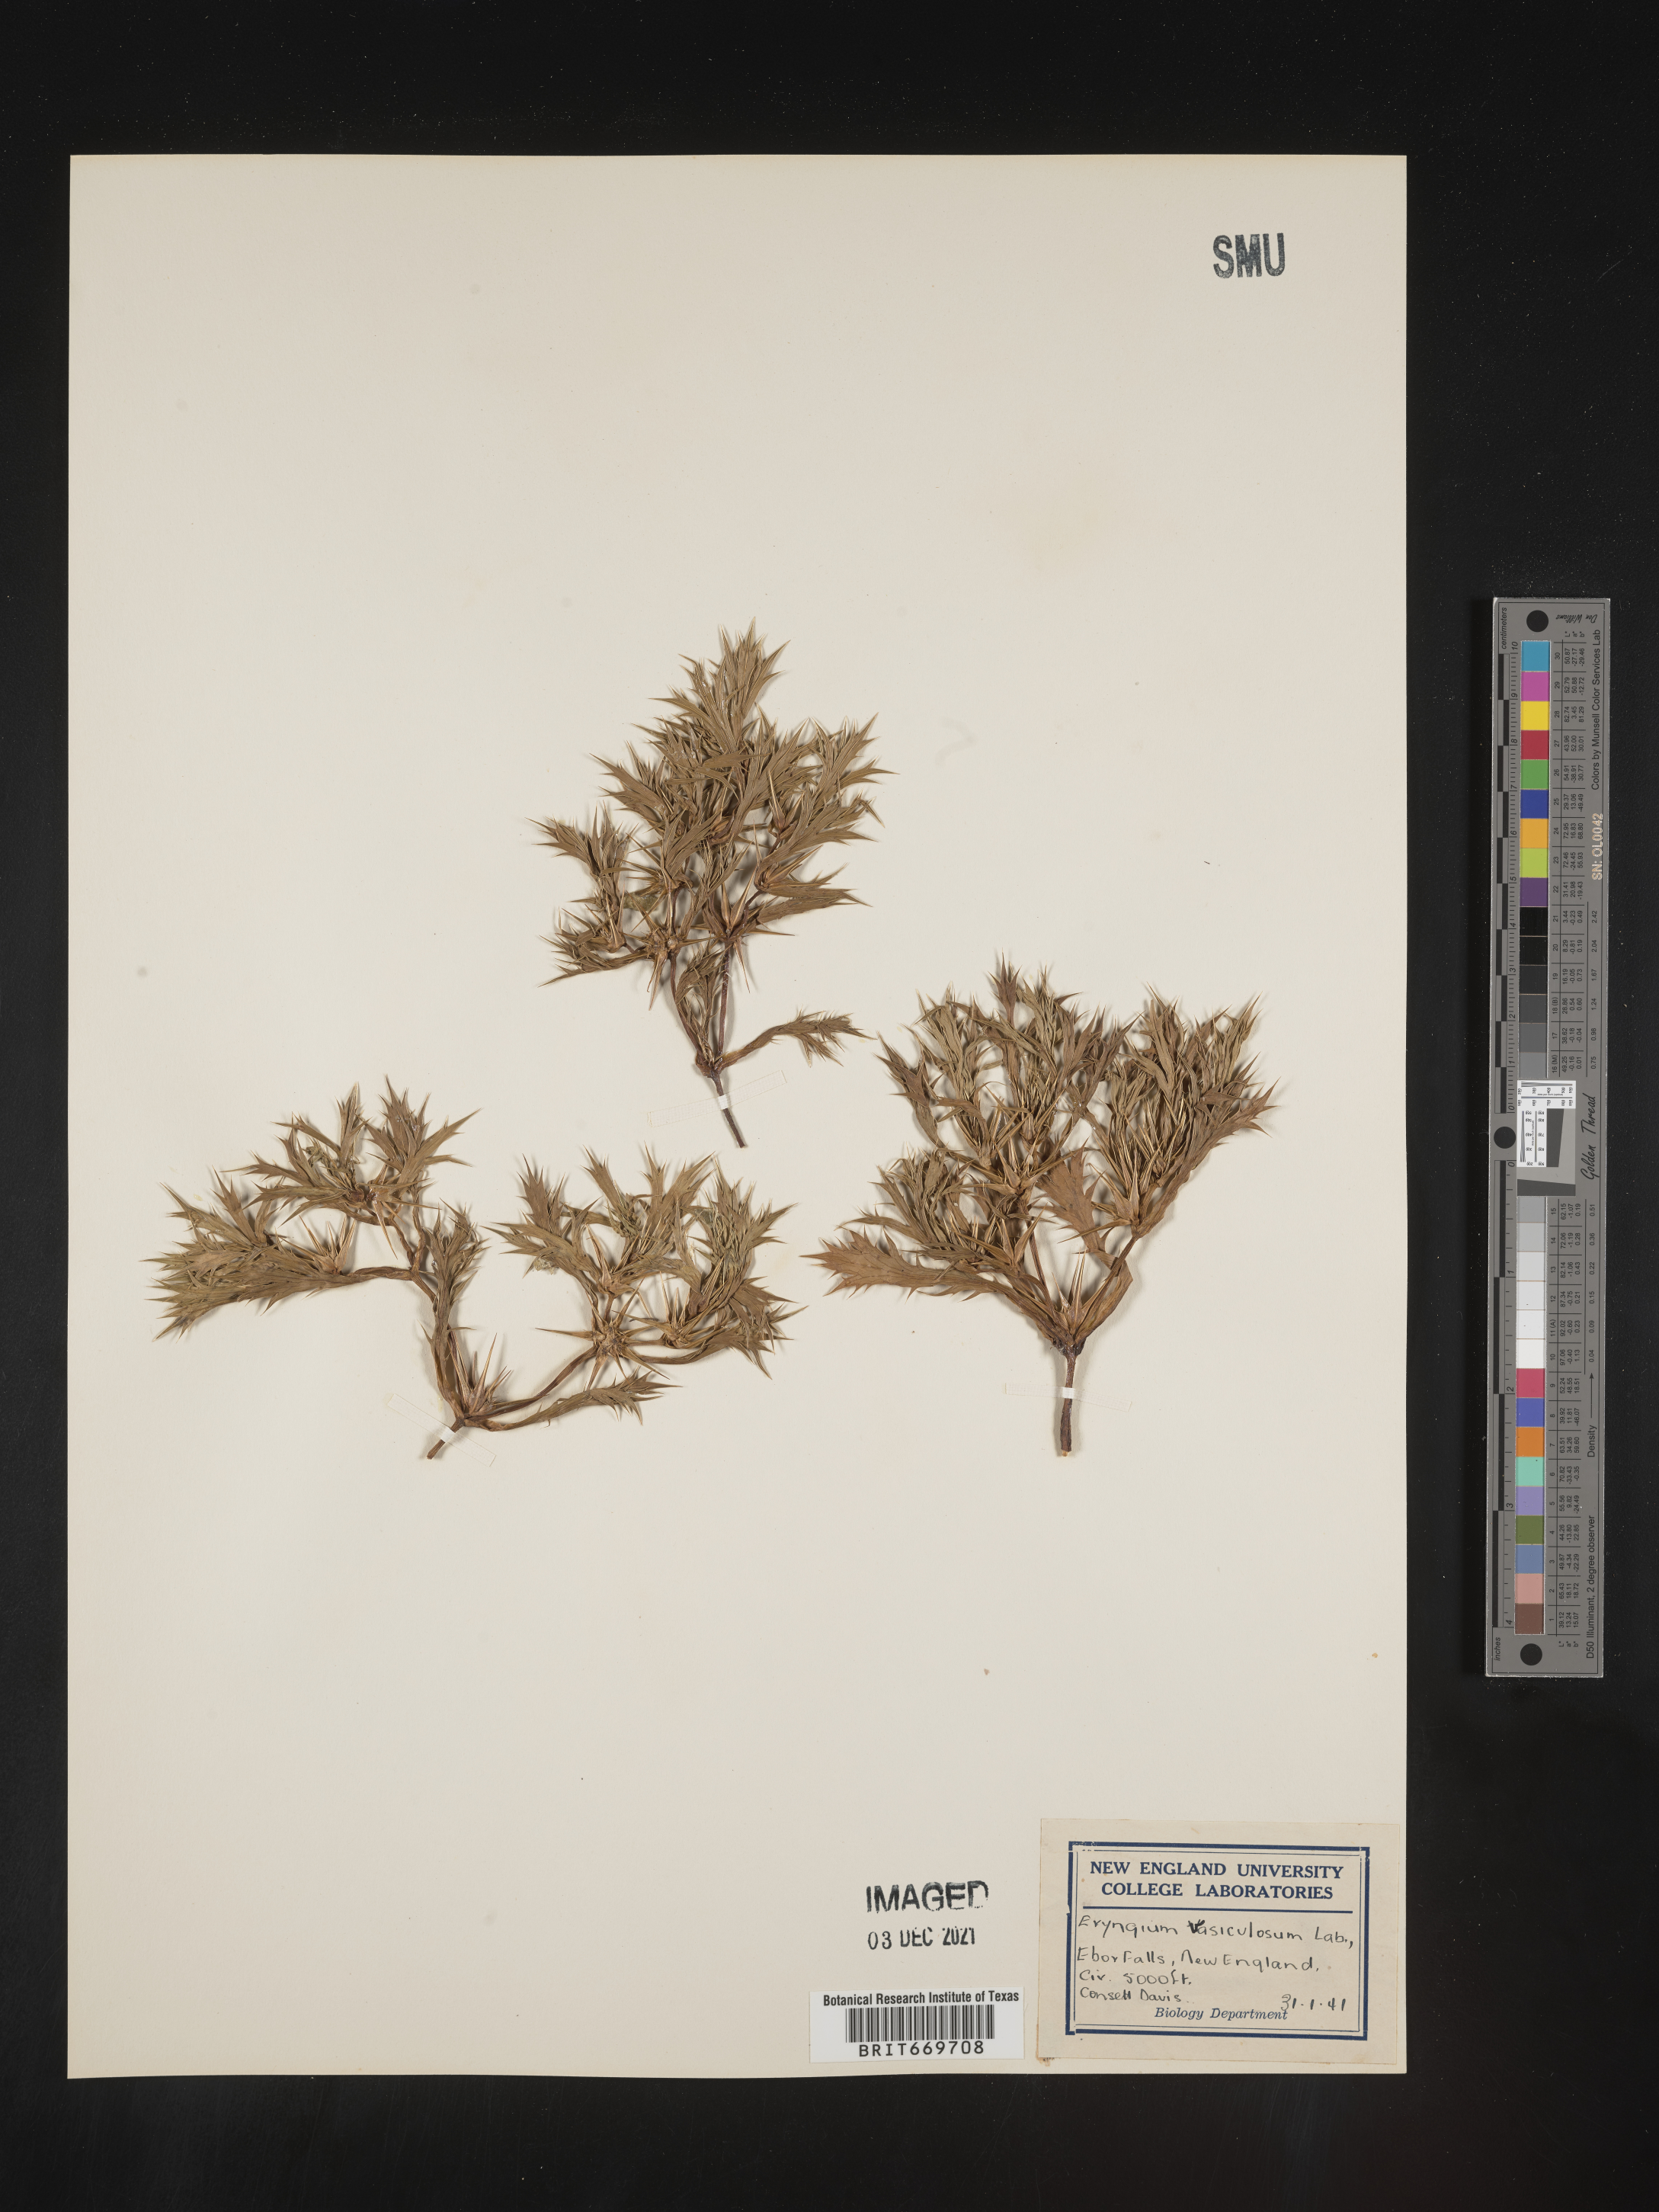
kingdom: Plantae
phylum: Tracheophyta
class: Magnoliopsida
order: Apiales
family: Apiaceae
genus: Eryngium
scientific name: Eryngium
